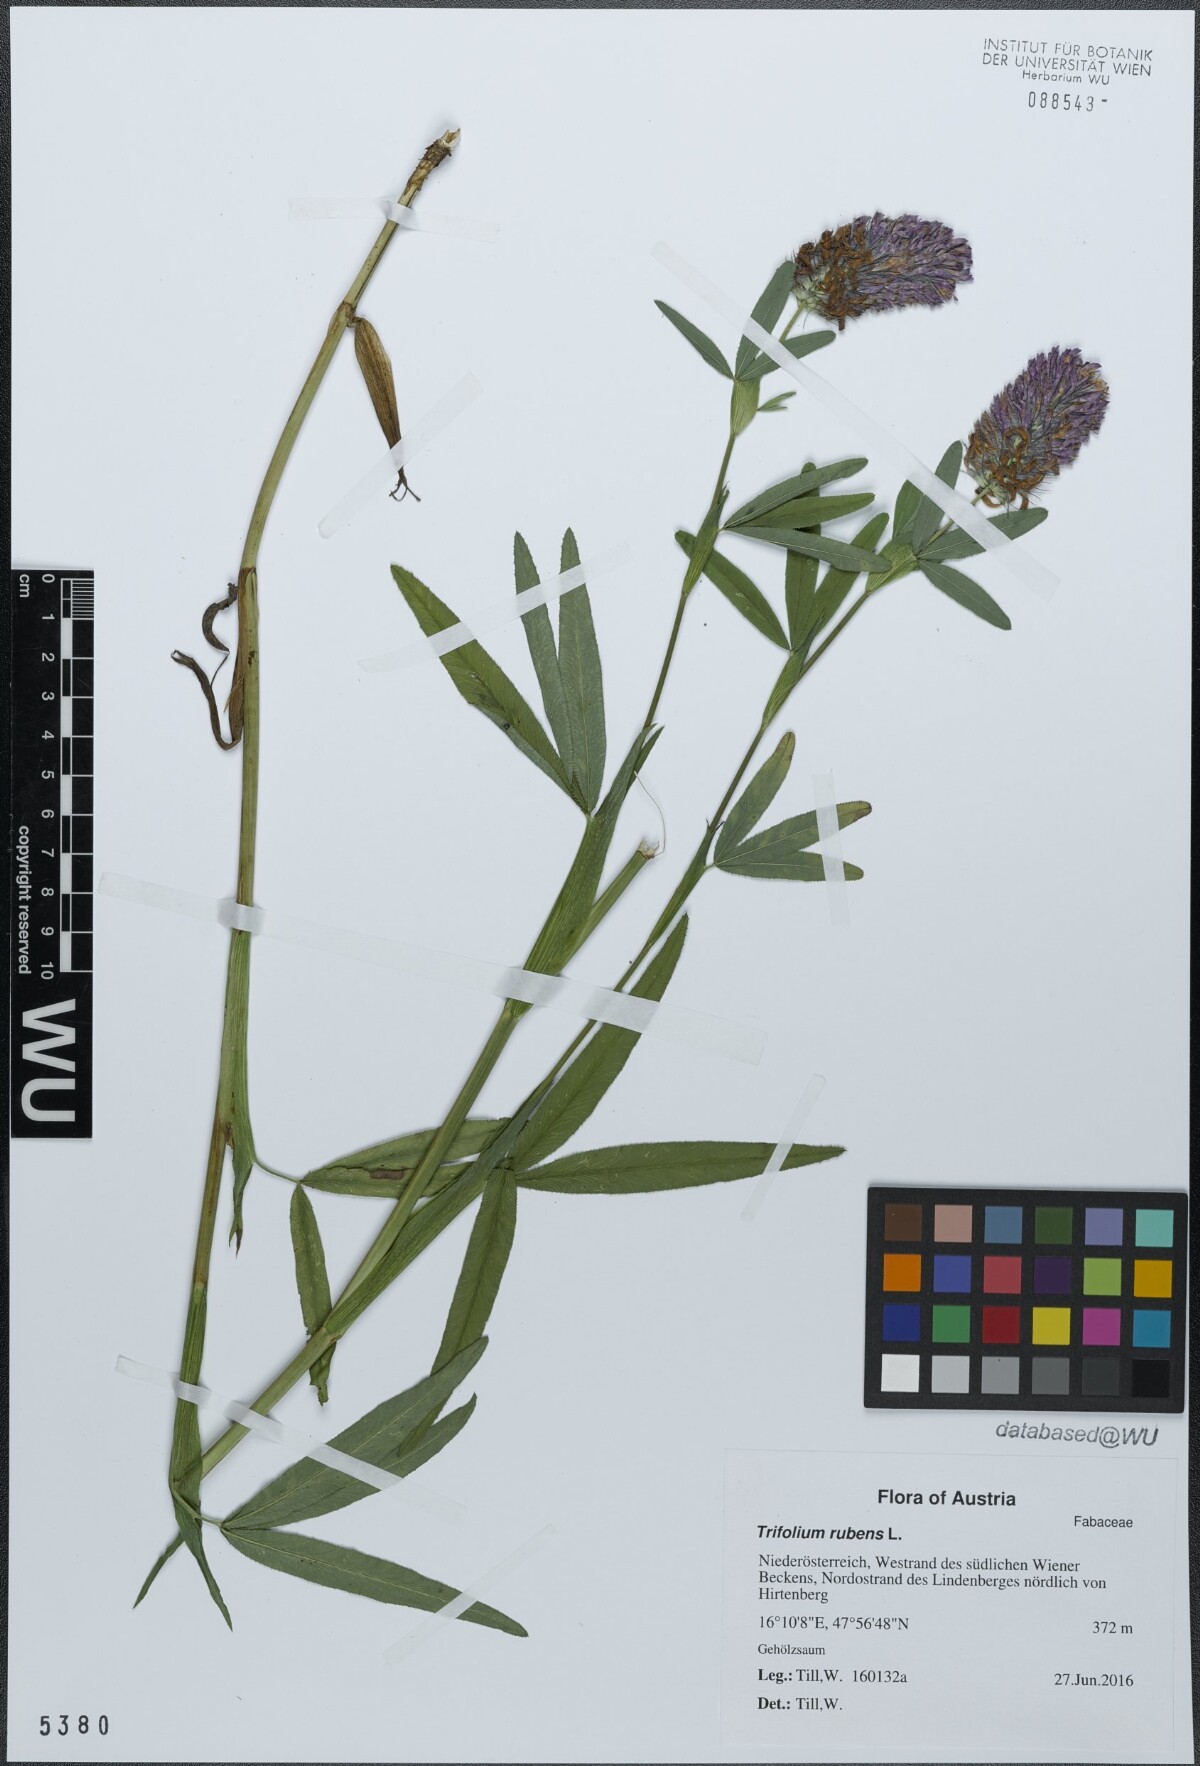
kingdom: Plantae
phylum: Tracheophyta
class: Magnoliopsida
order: Fabales
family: Fabaceae
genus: Trifolium
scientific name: Trifolium rubens
